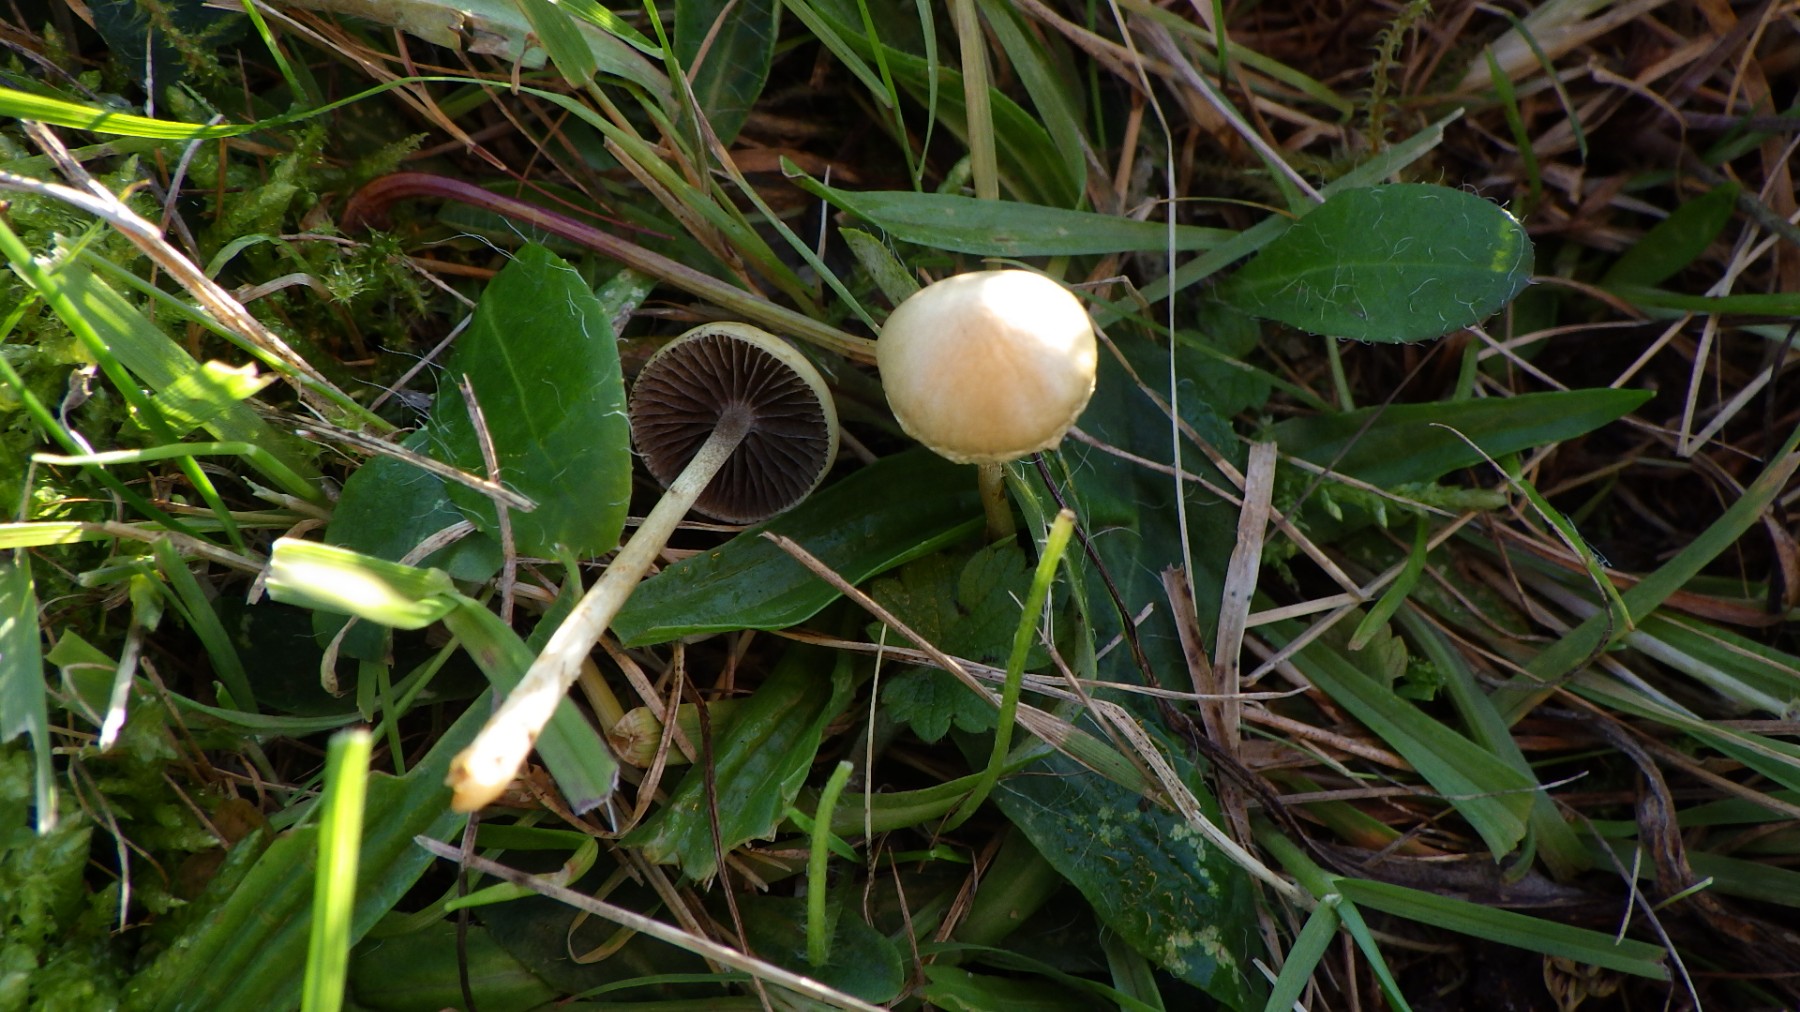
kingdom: Fungi
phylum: Basidiomycota
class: Agaricomycetes
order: Agaricales
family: Strophariaceae
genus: Protostropharia
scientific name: Protostropharia semiglobata
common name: halvkugleformet bredblad
